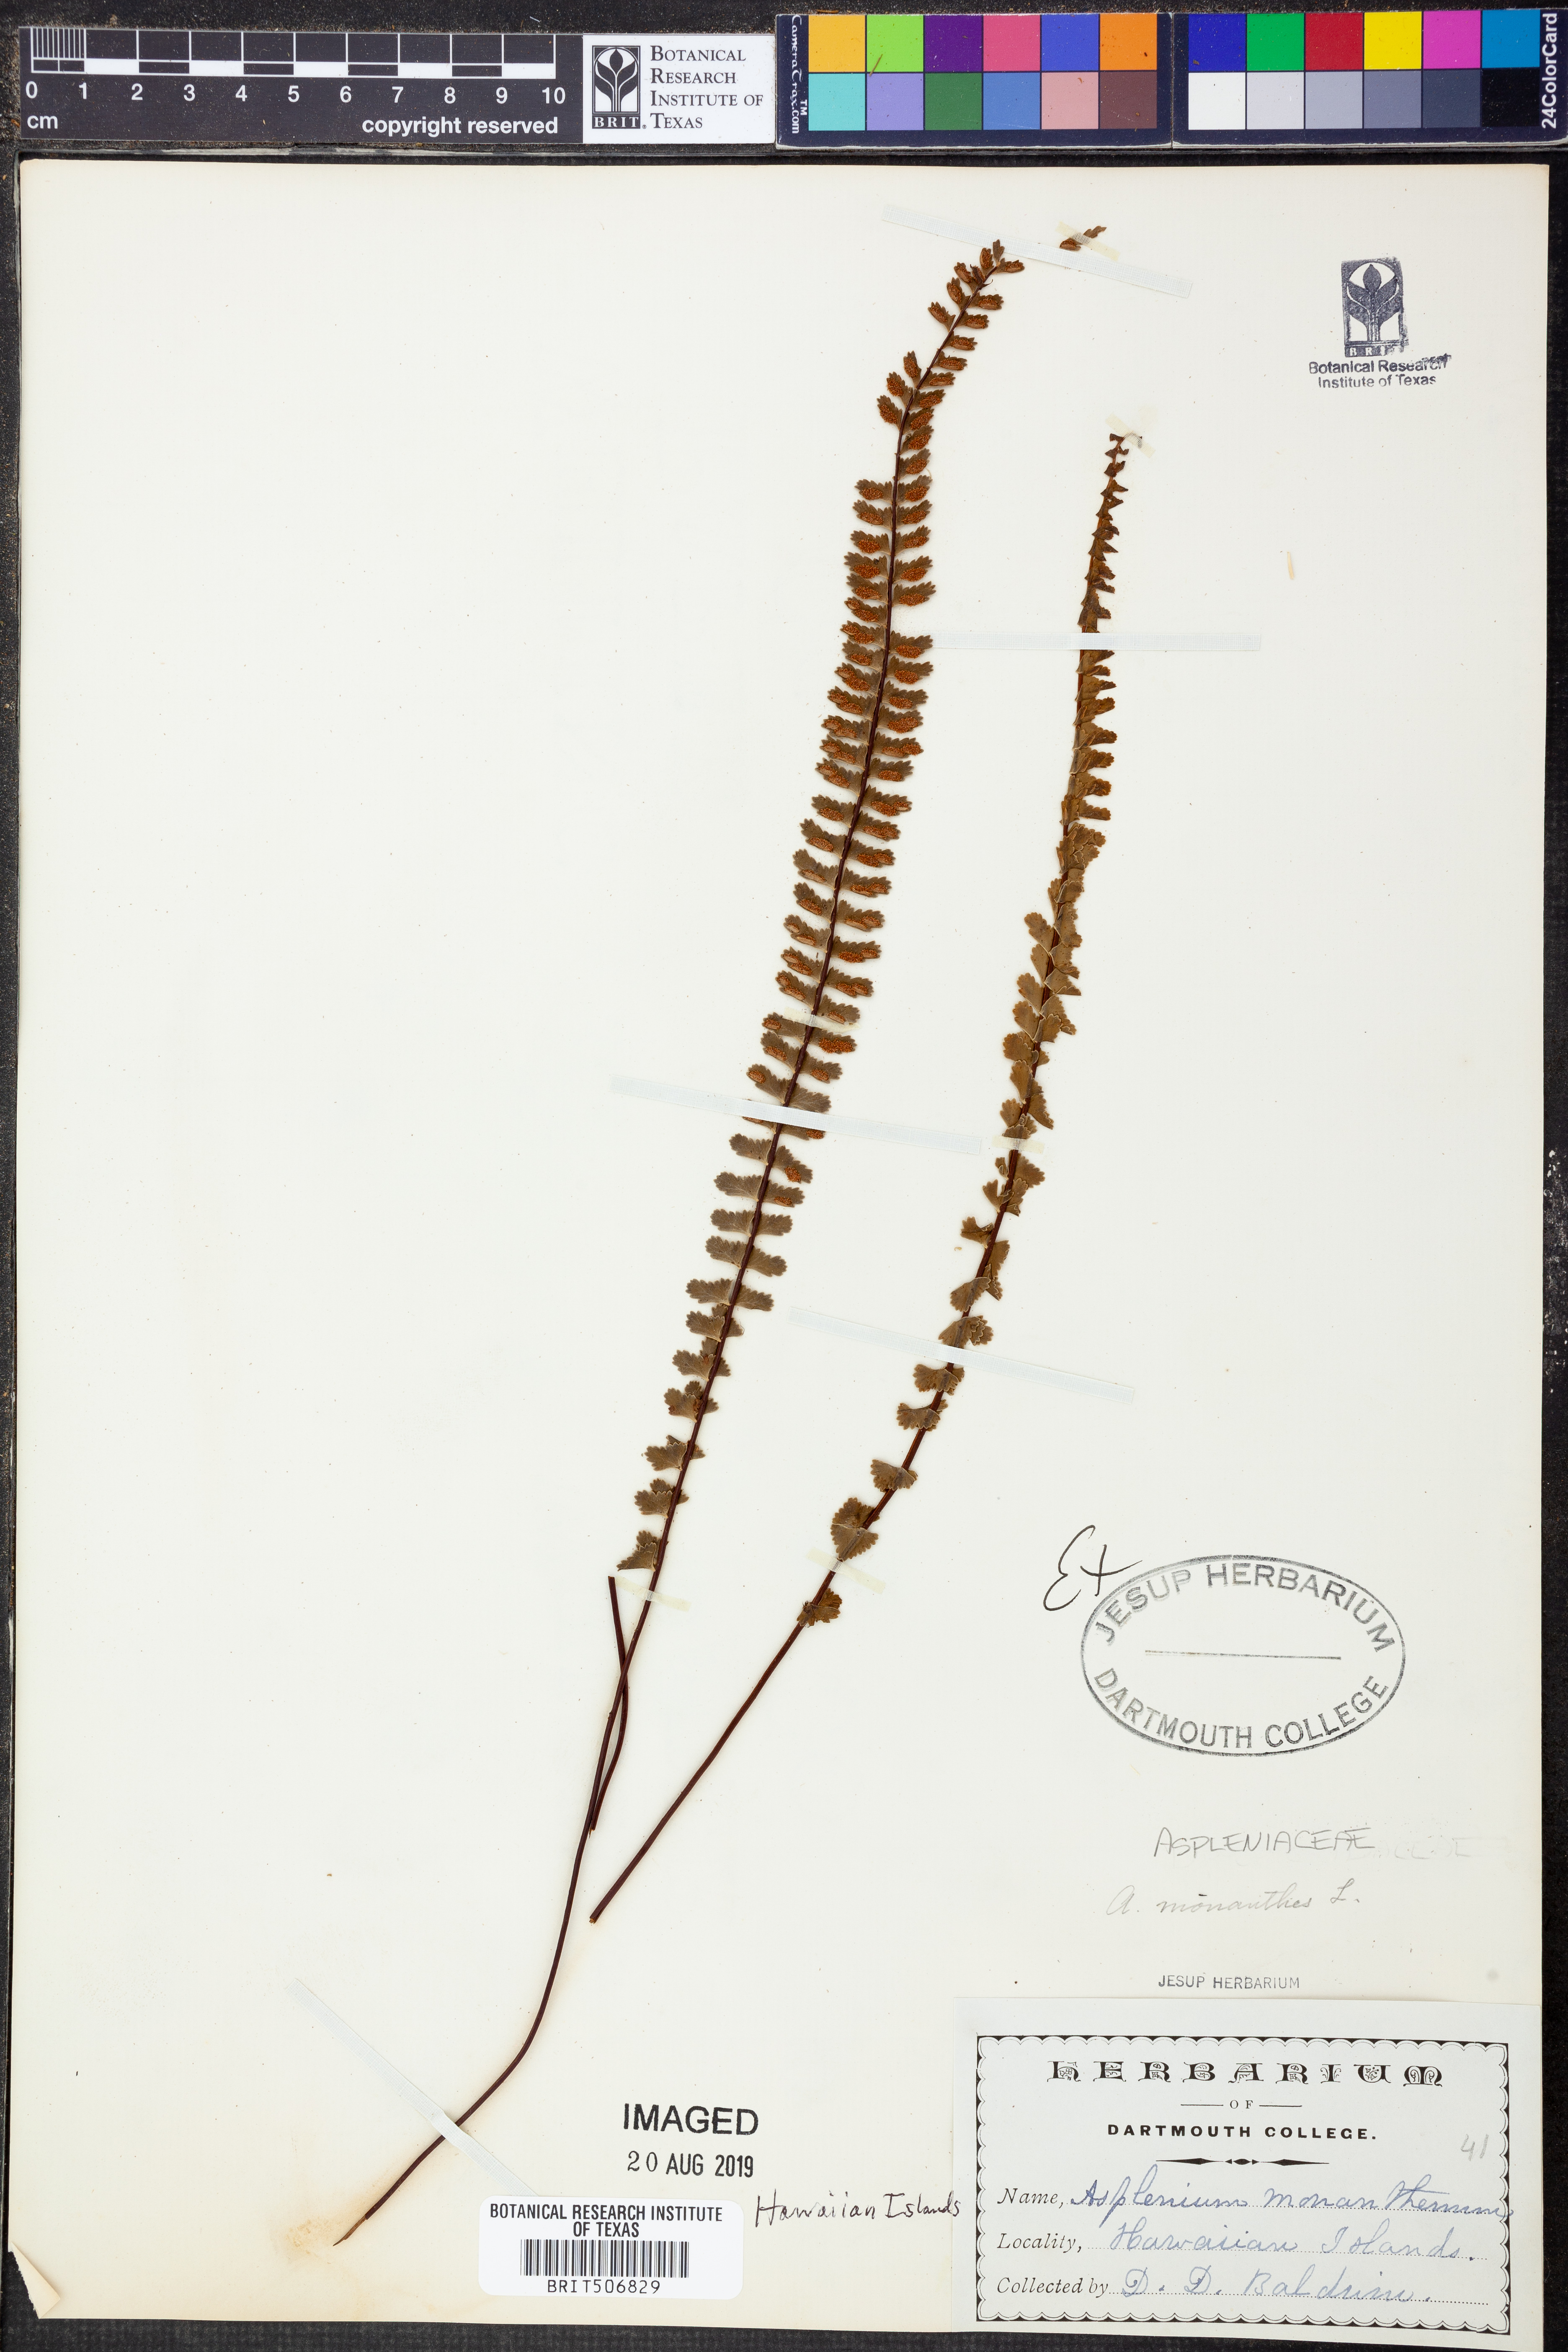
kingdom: Plantae
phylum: Tracheophyta
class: Polypodiopsida
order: Polypodiales
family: Aspleniaceae
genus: Asplenium
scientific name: Asplenium monanthes
